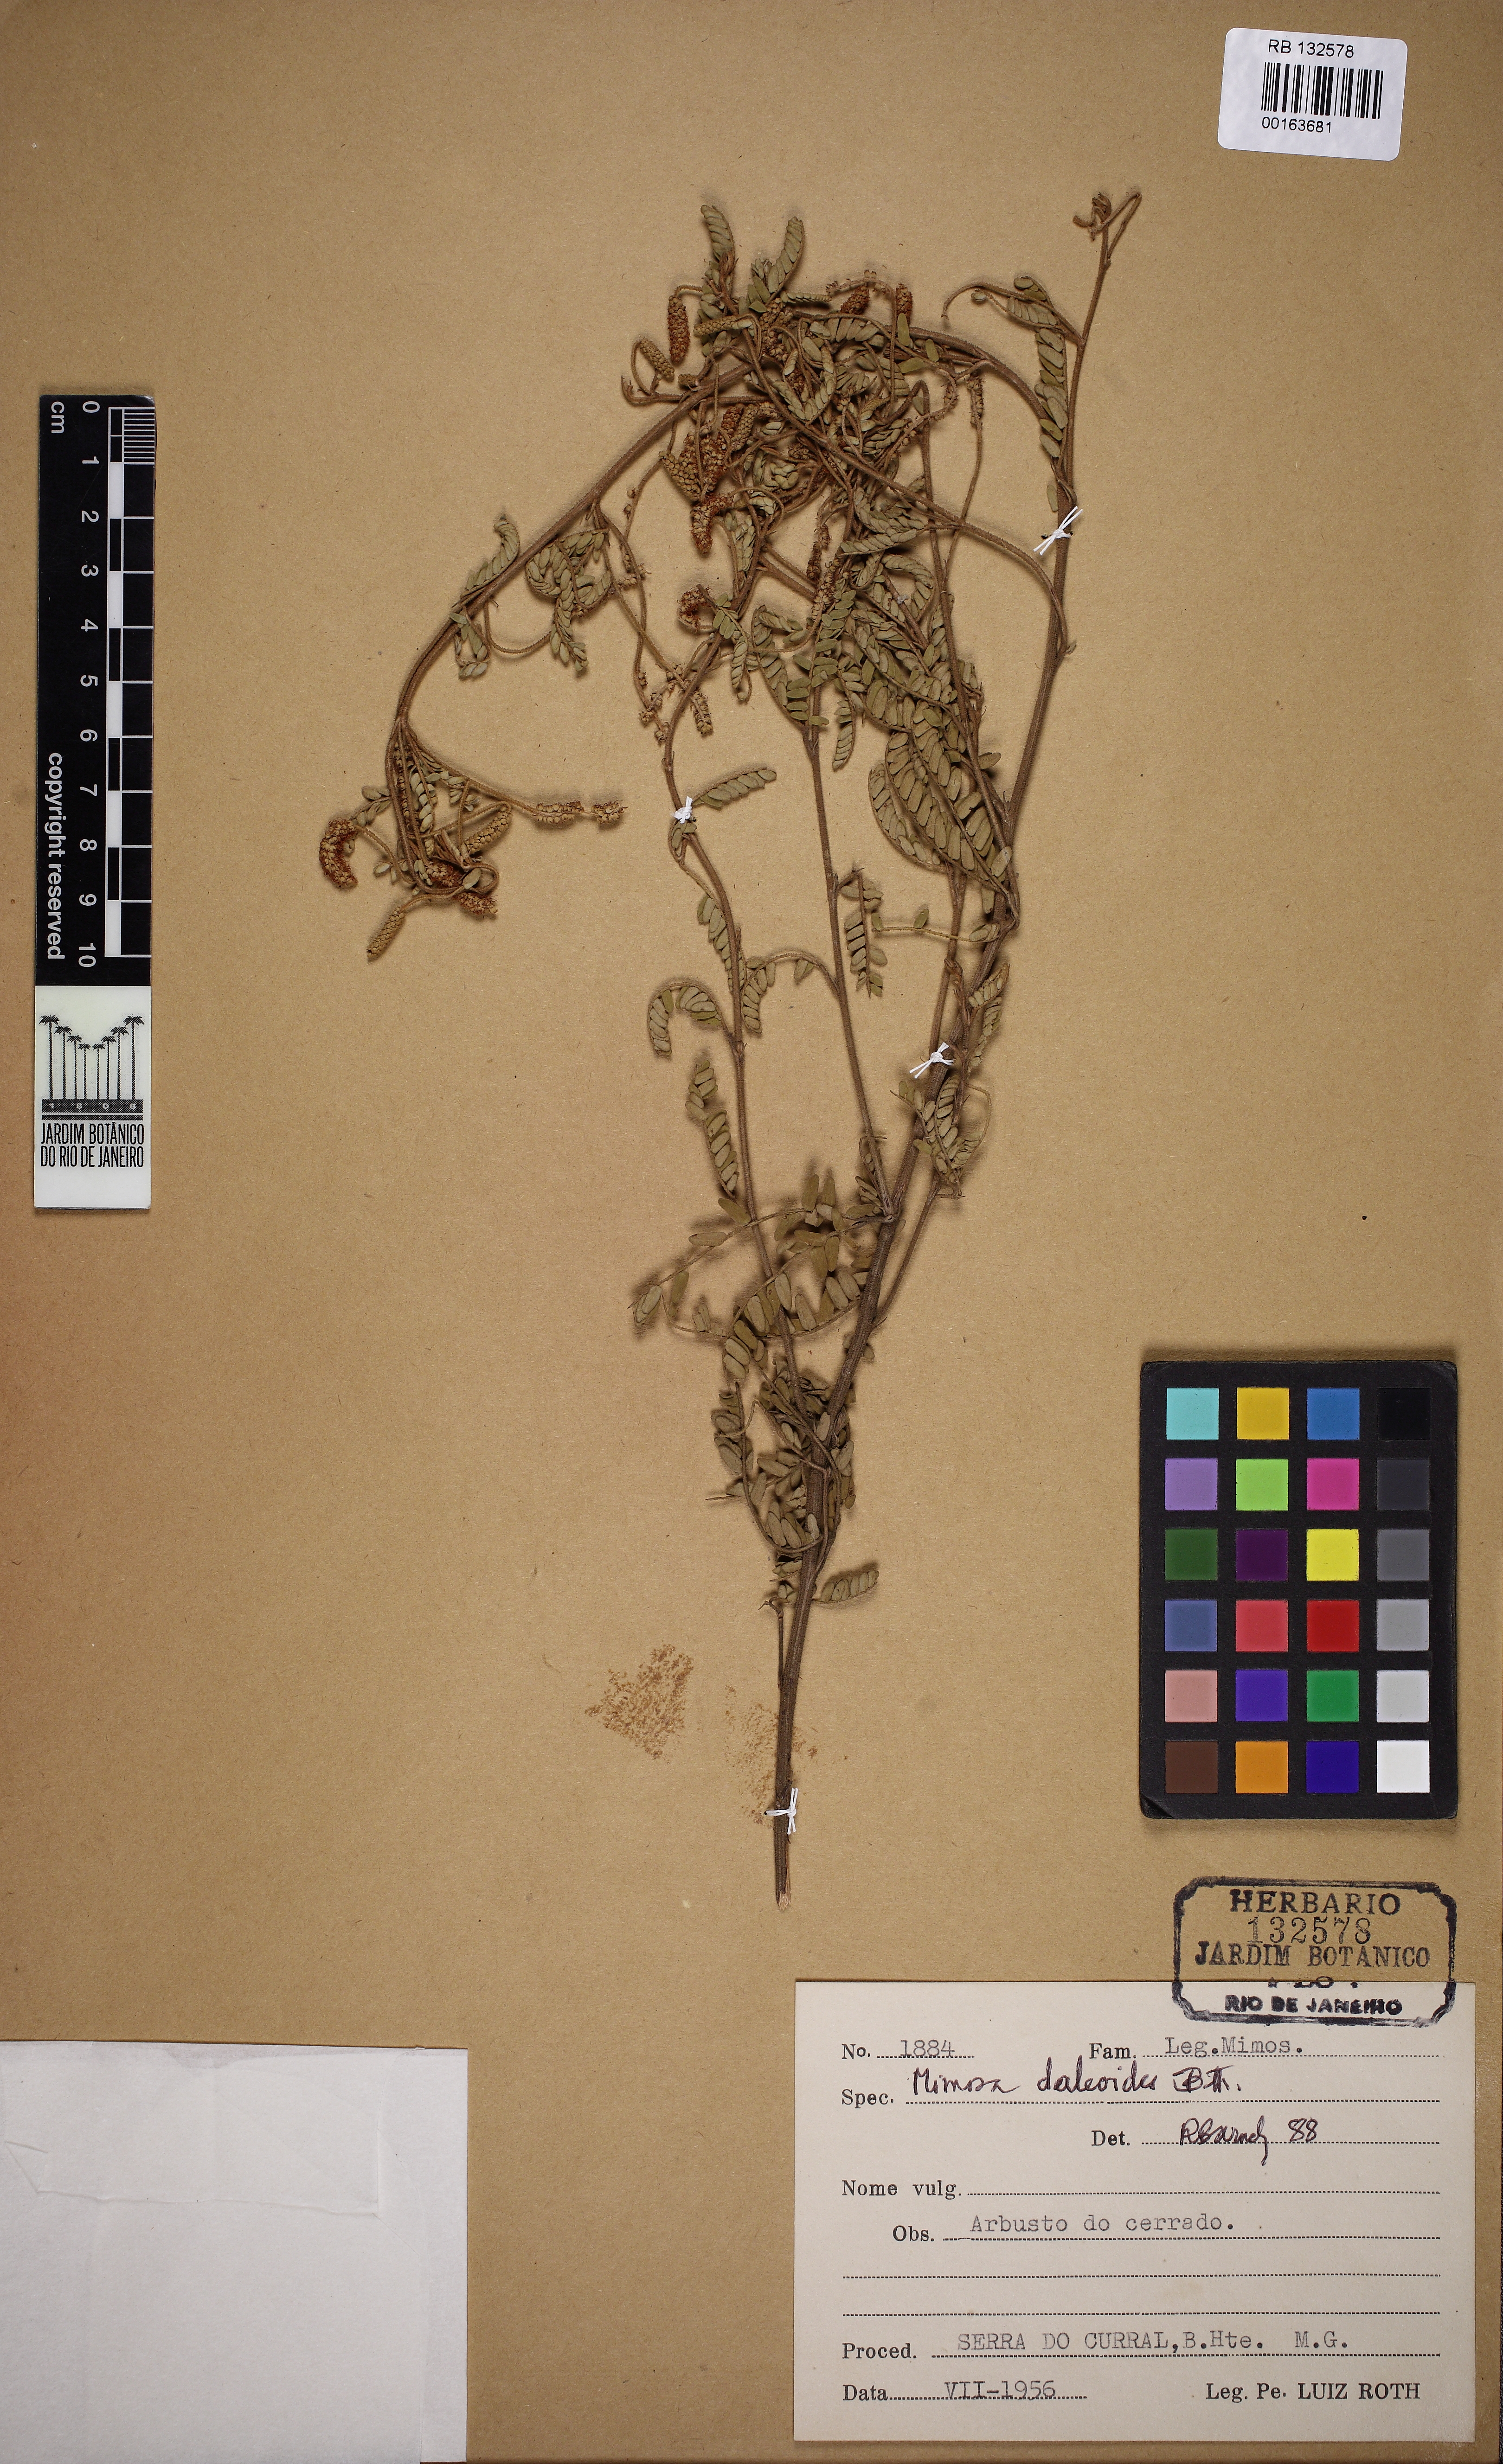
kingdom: Plantae
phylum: Tracheophyta
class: Magnoliopsida
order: Fabales
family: Fabaceae
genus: Mimosa
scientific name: Mimosa daleoides
